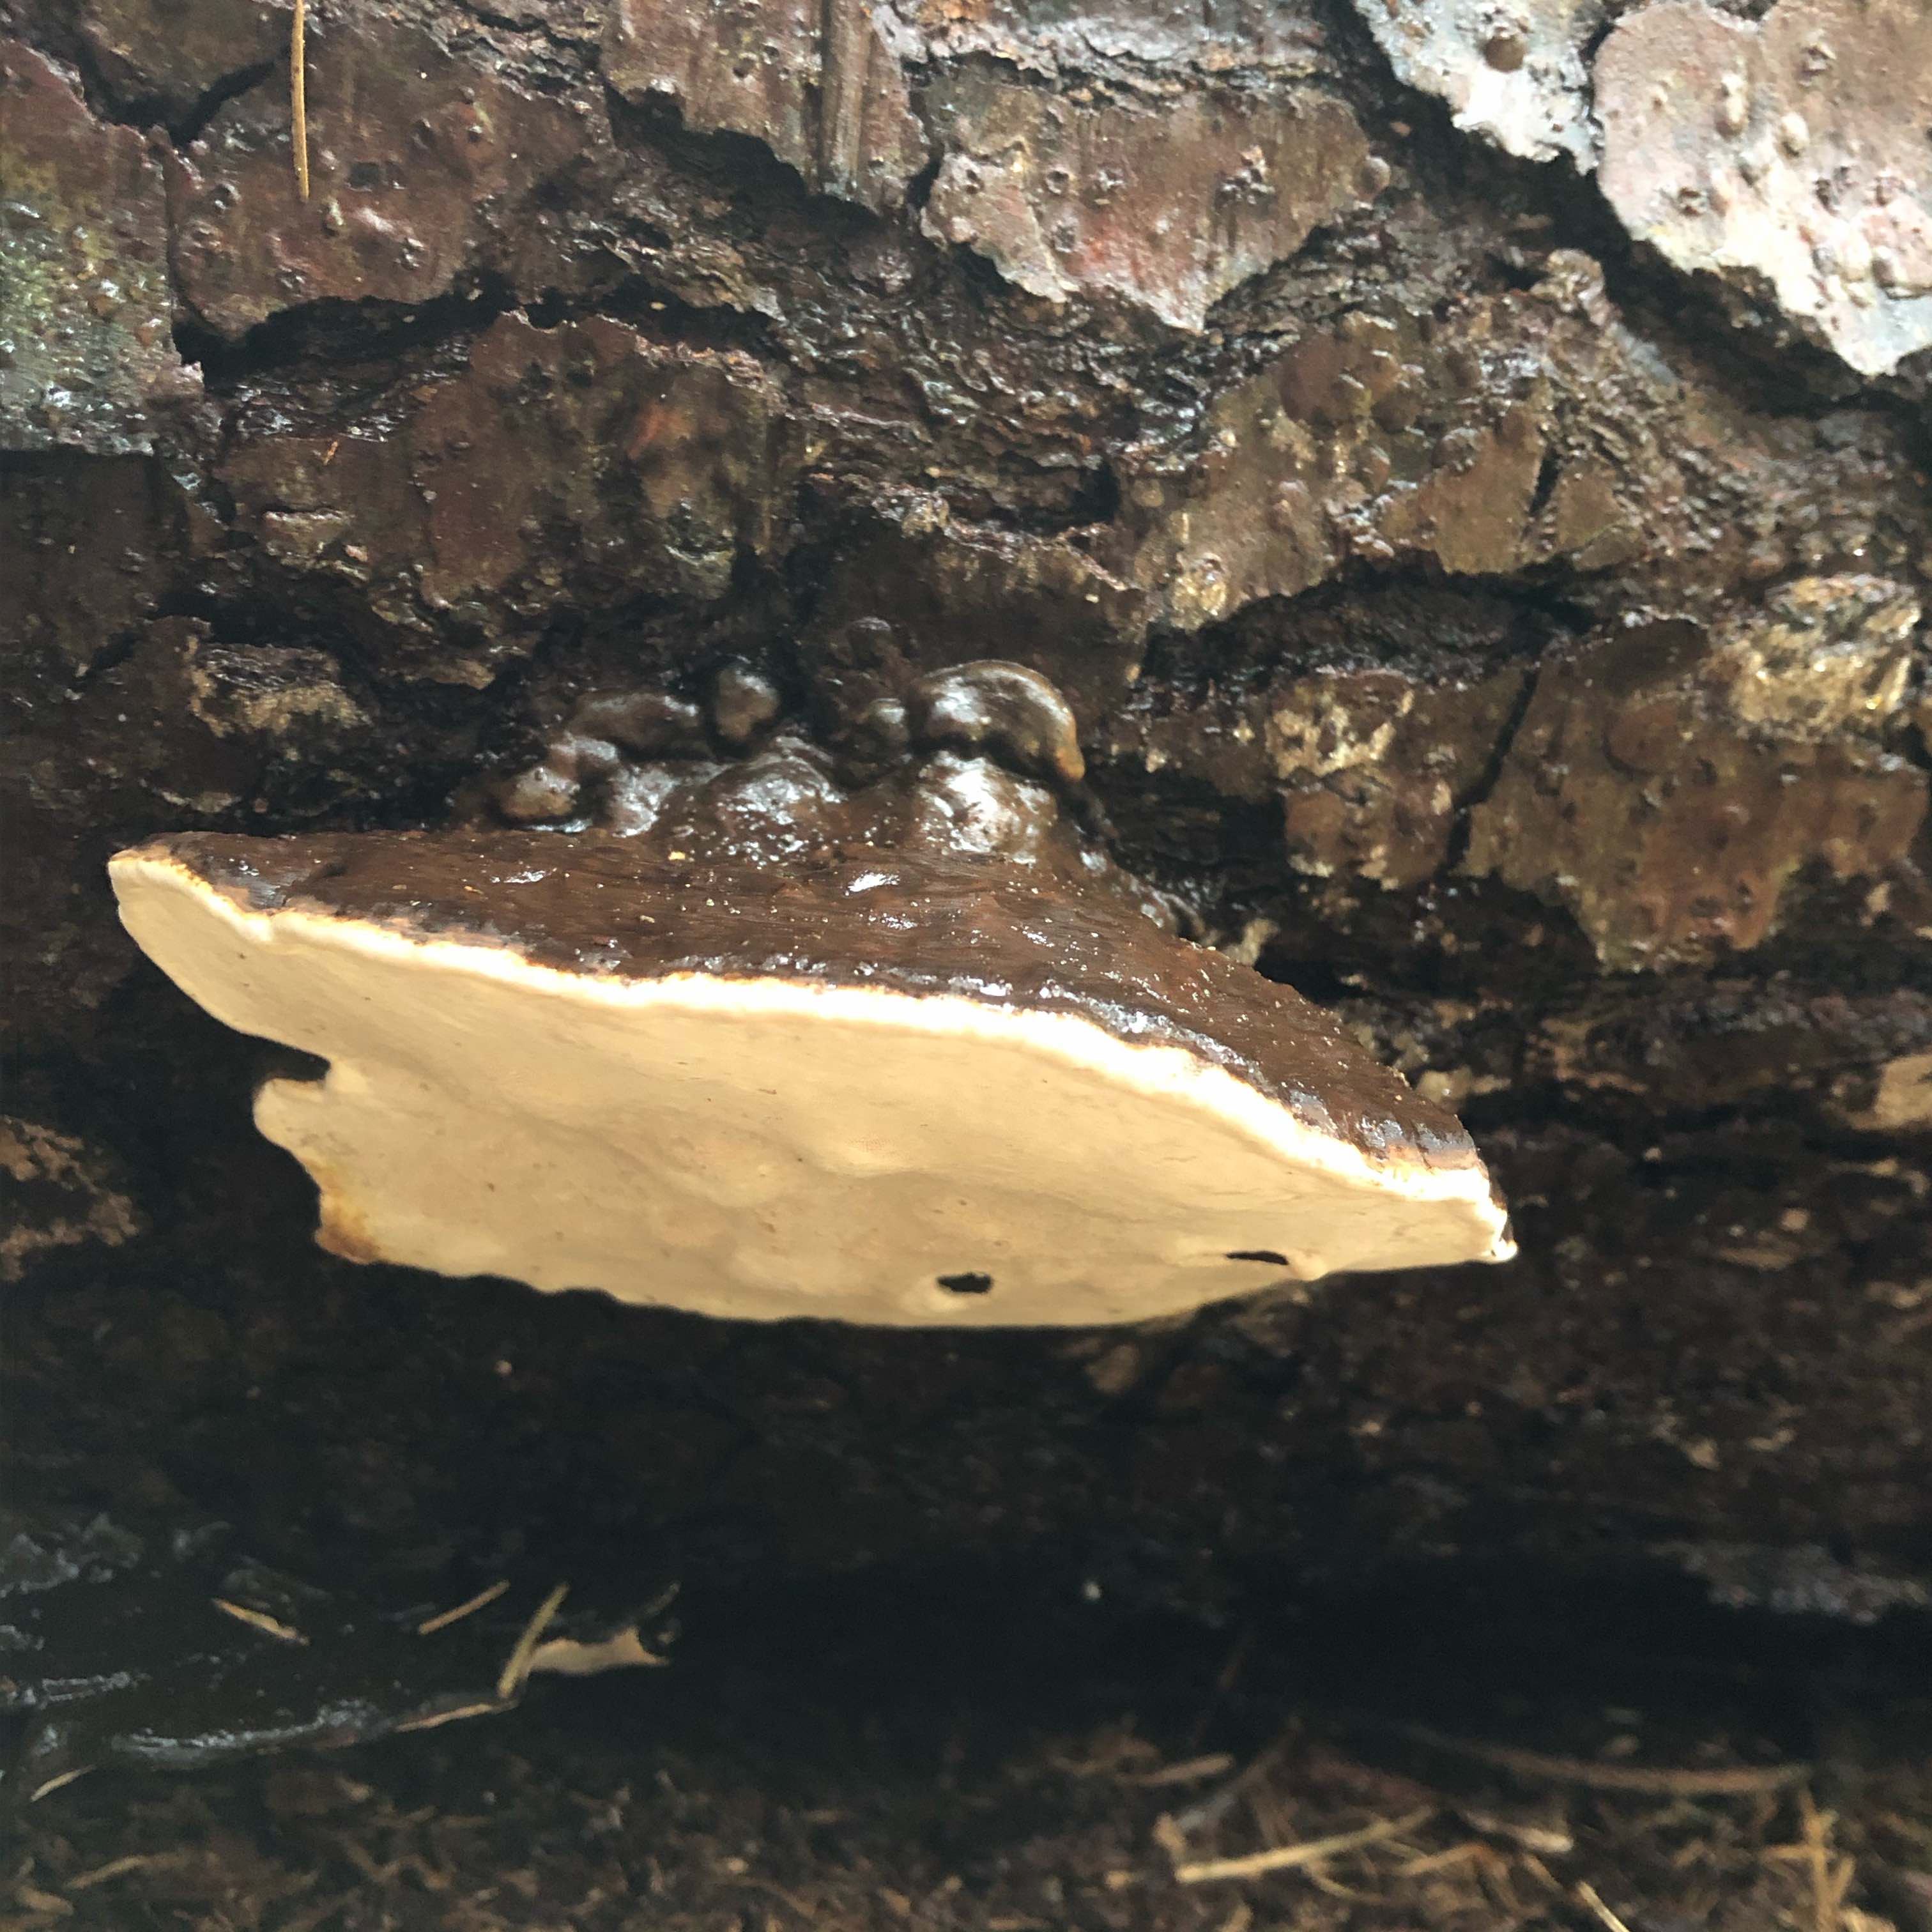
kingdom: Fungi
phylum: Basidiomycota
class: Agaricomycetes
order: Polyporales
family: Polyporaceae
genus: Ganoderma
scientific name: Ganoderma applanatum
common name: flad lakporesvamp
